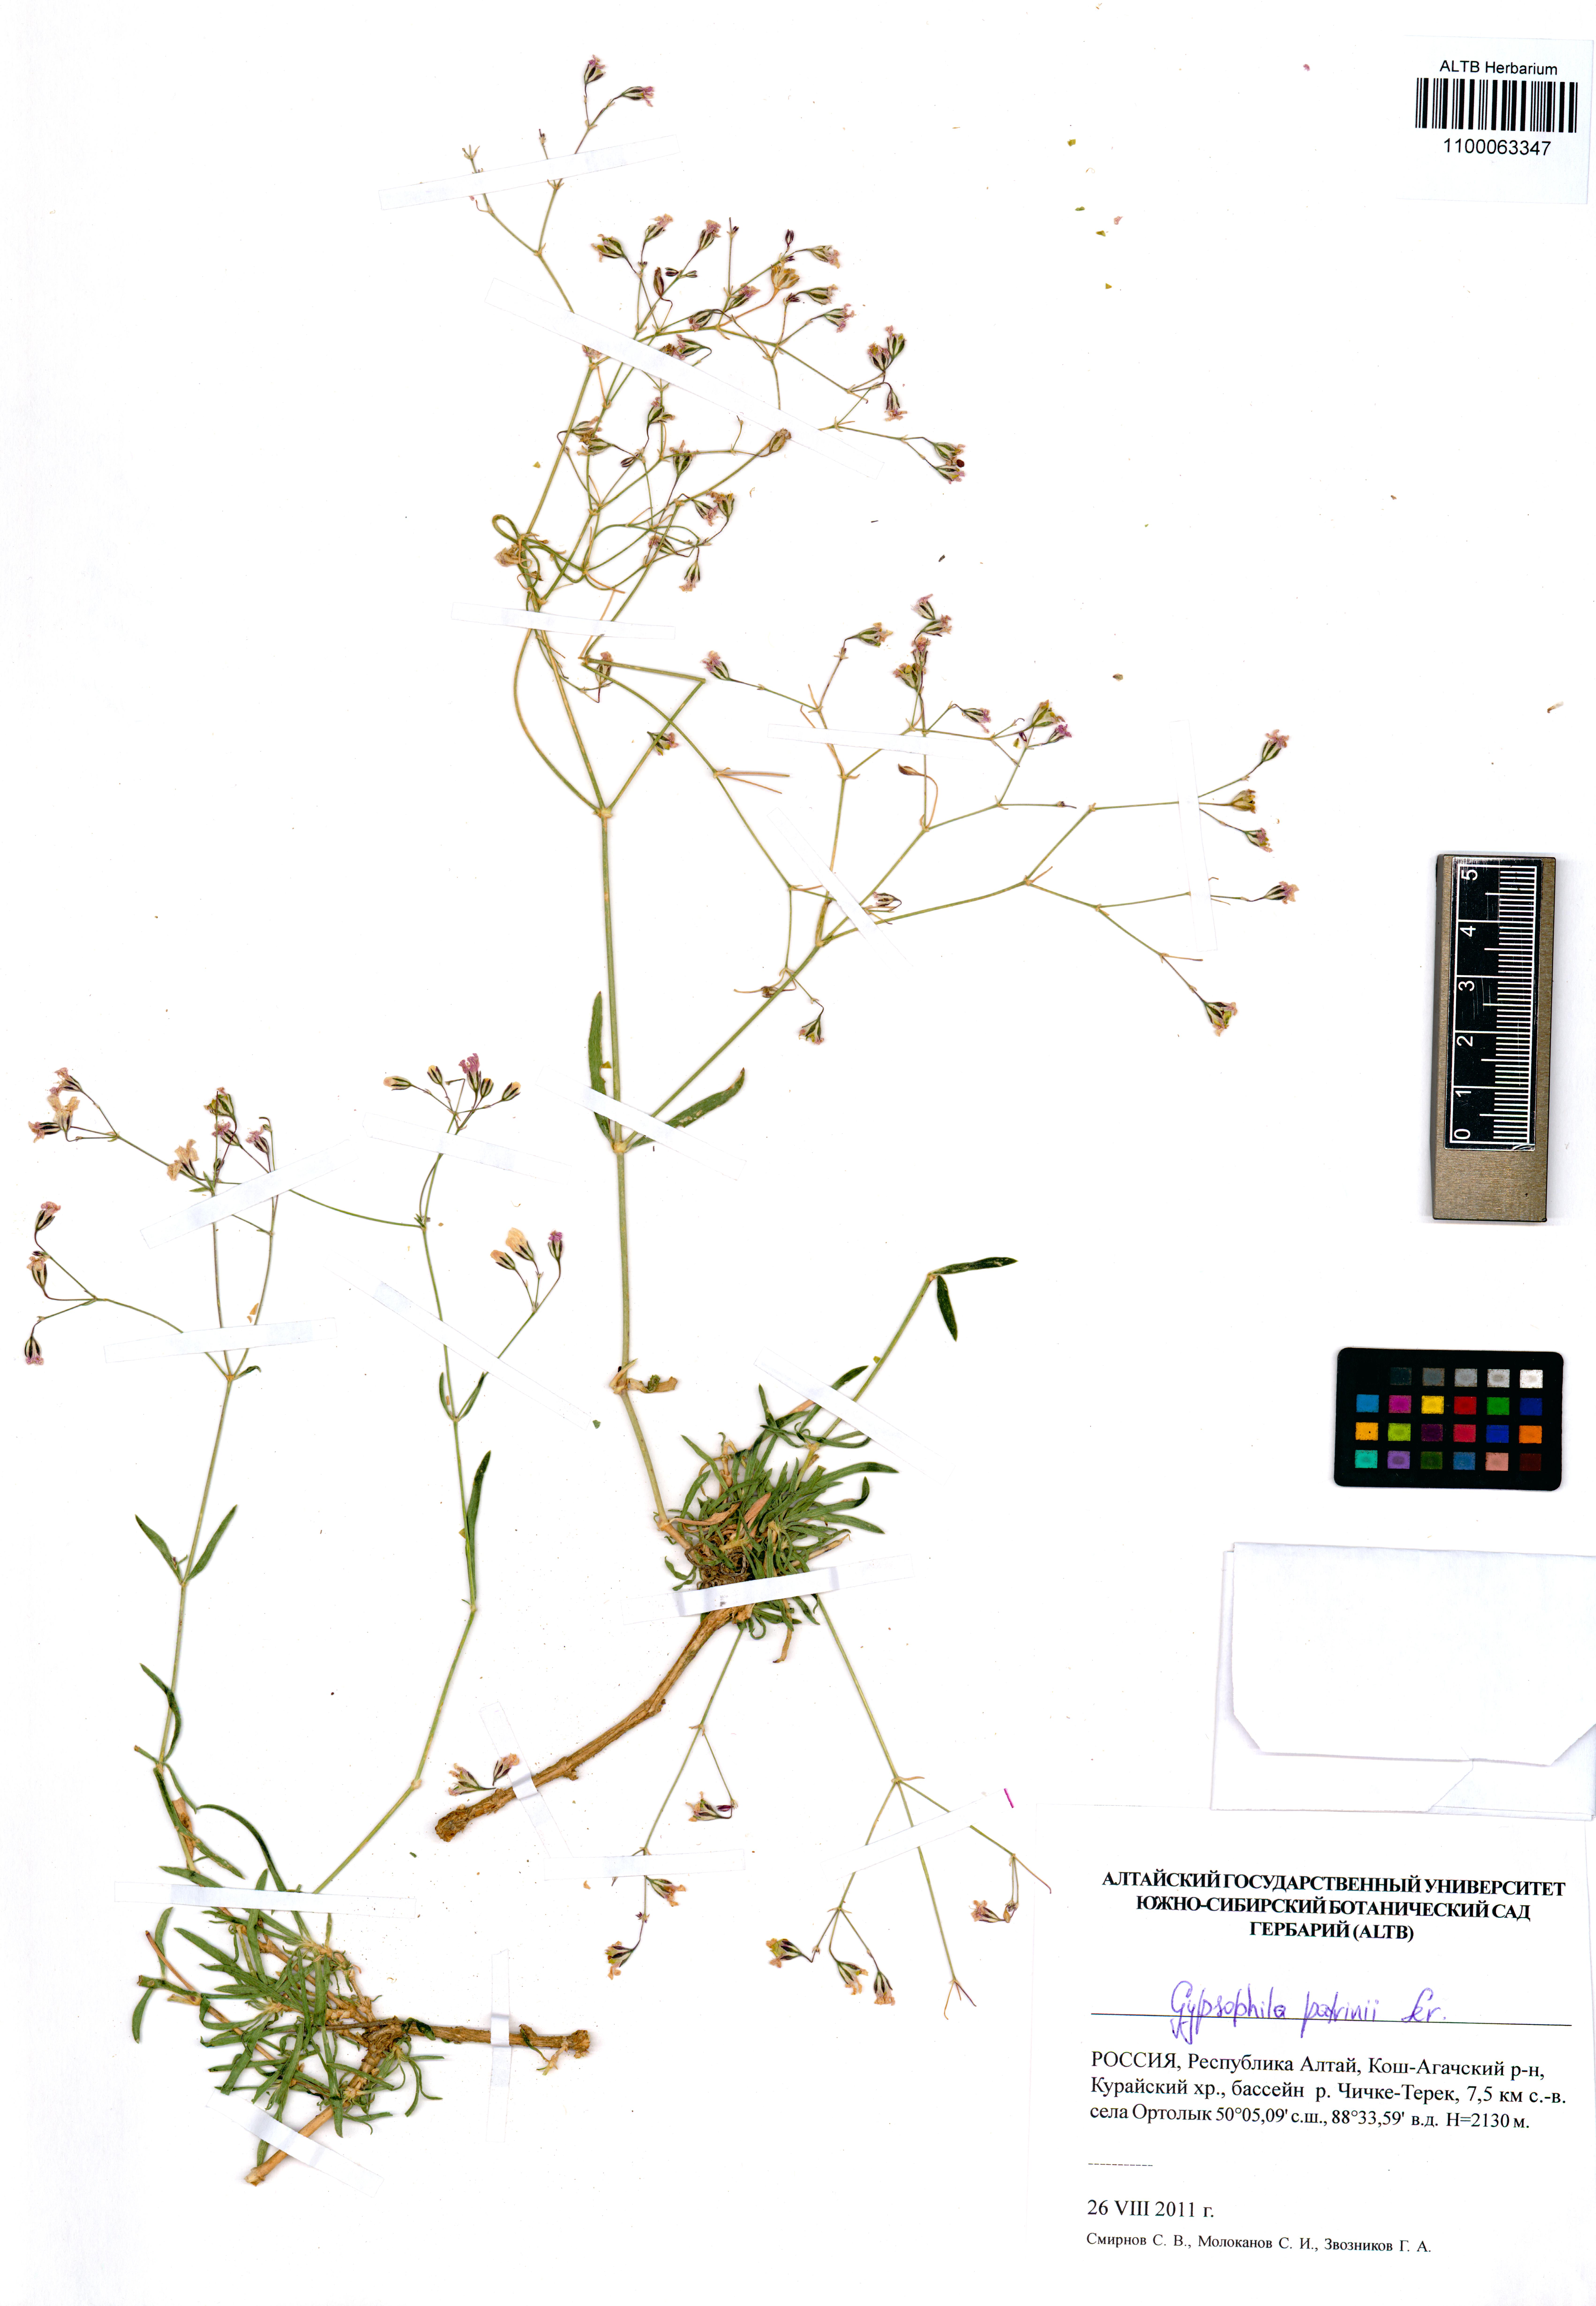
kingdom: Plantae
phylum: Tracheophyta
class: Magnoliopsida
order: Caryophyllales
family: Caryophyllaceae
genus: Gypsophila
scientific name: Gypsophila patrinii
